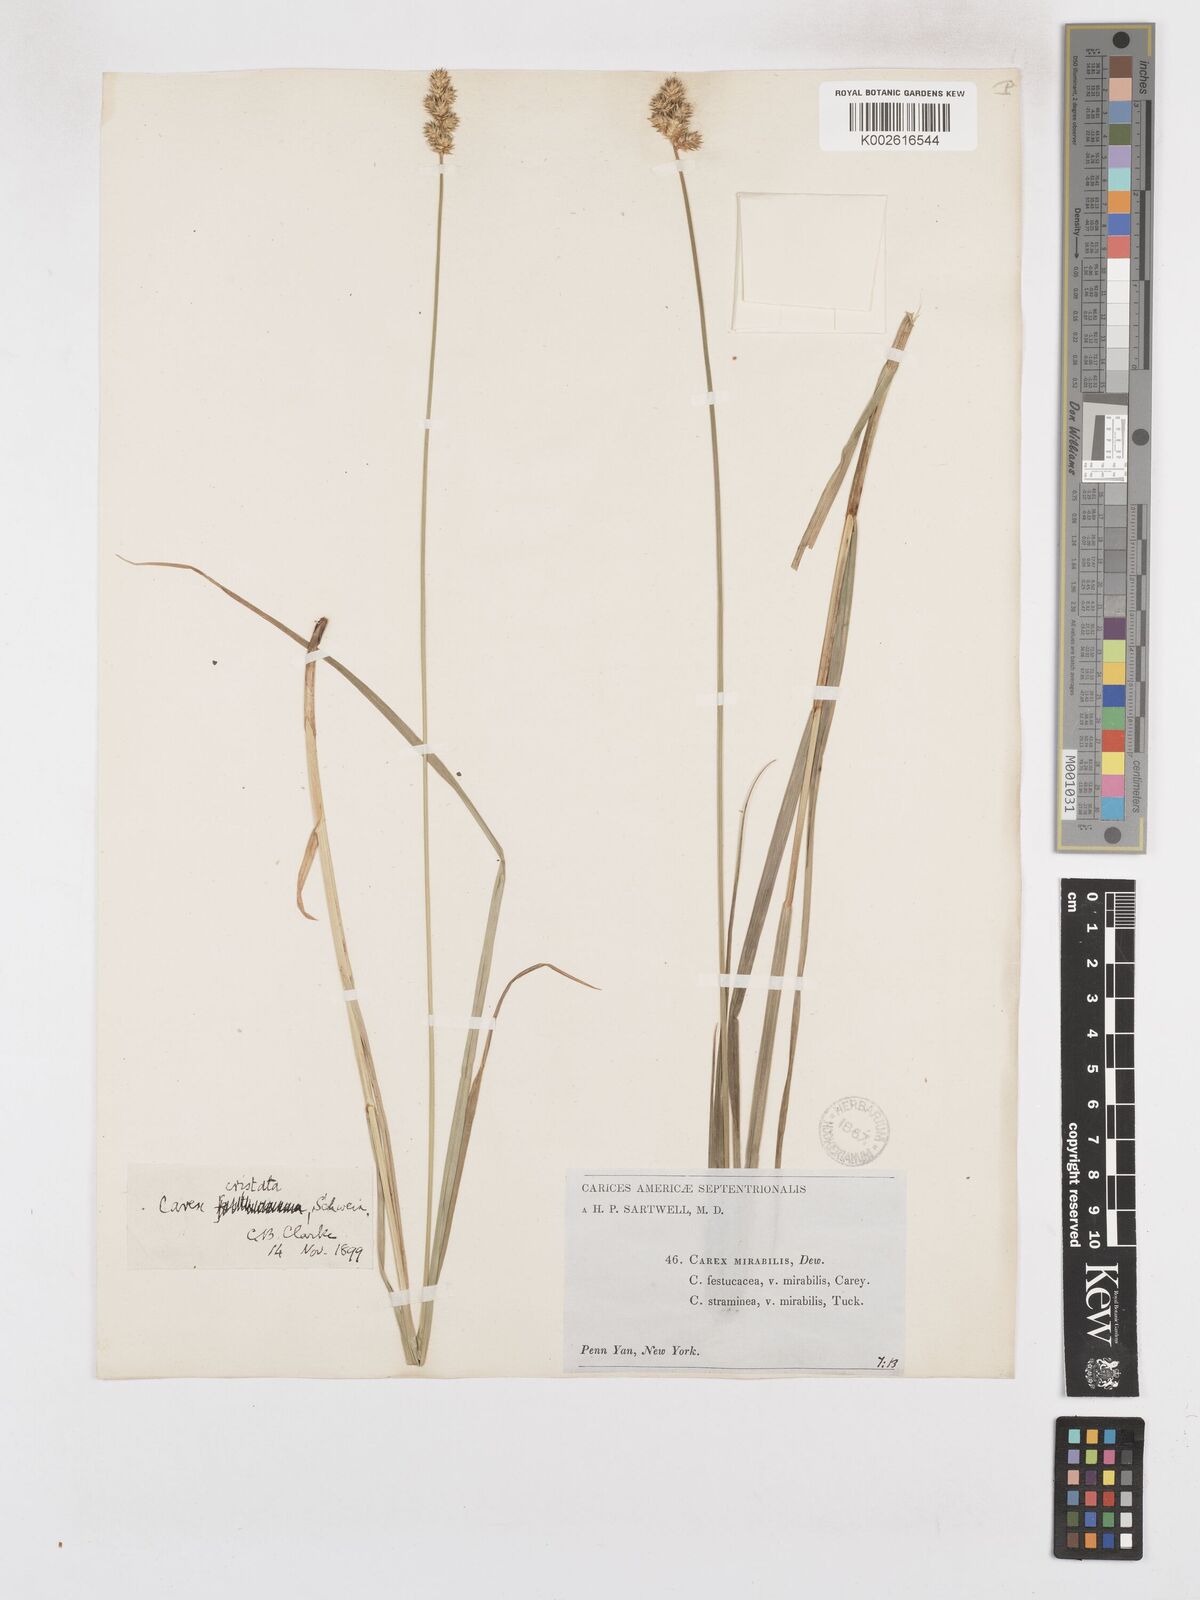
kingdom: Plantae
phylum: Tracheophyta
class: Liliopsida
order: Poales
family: Cyperaceae
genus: Carex
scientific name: Carex cristatella
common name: Crested oval sedge
